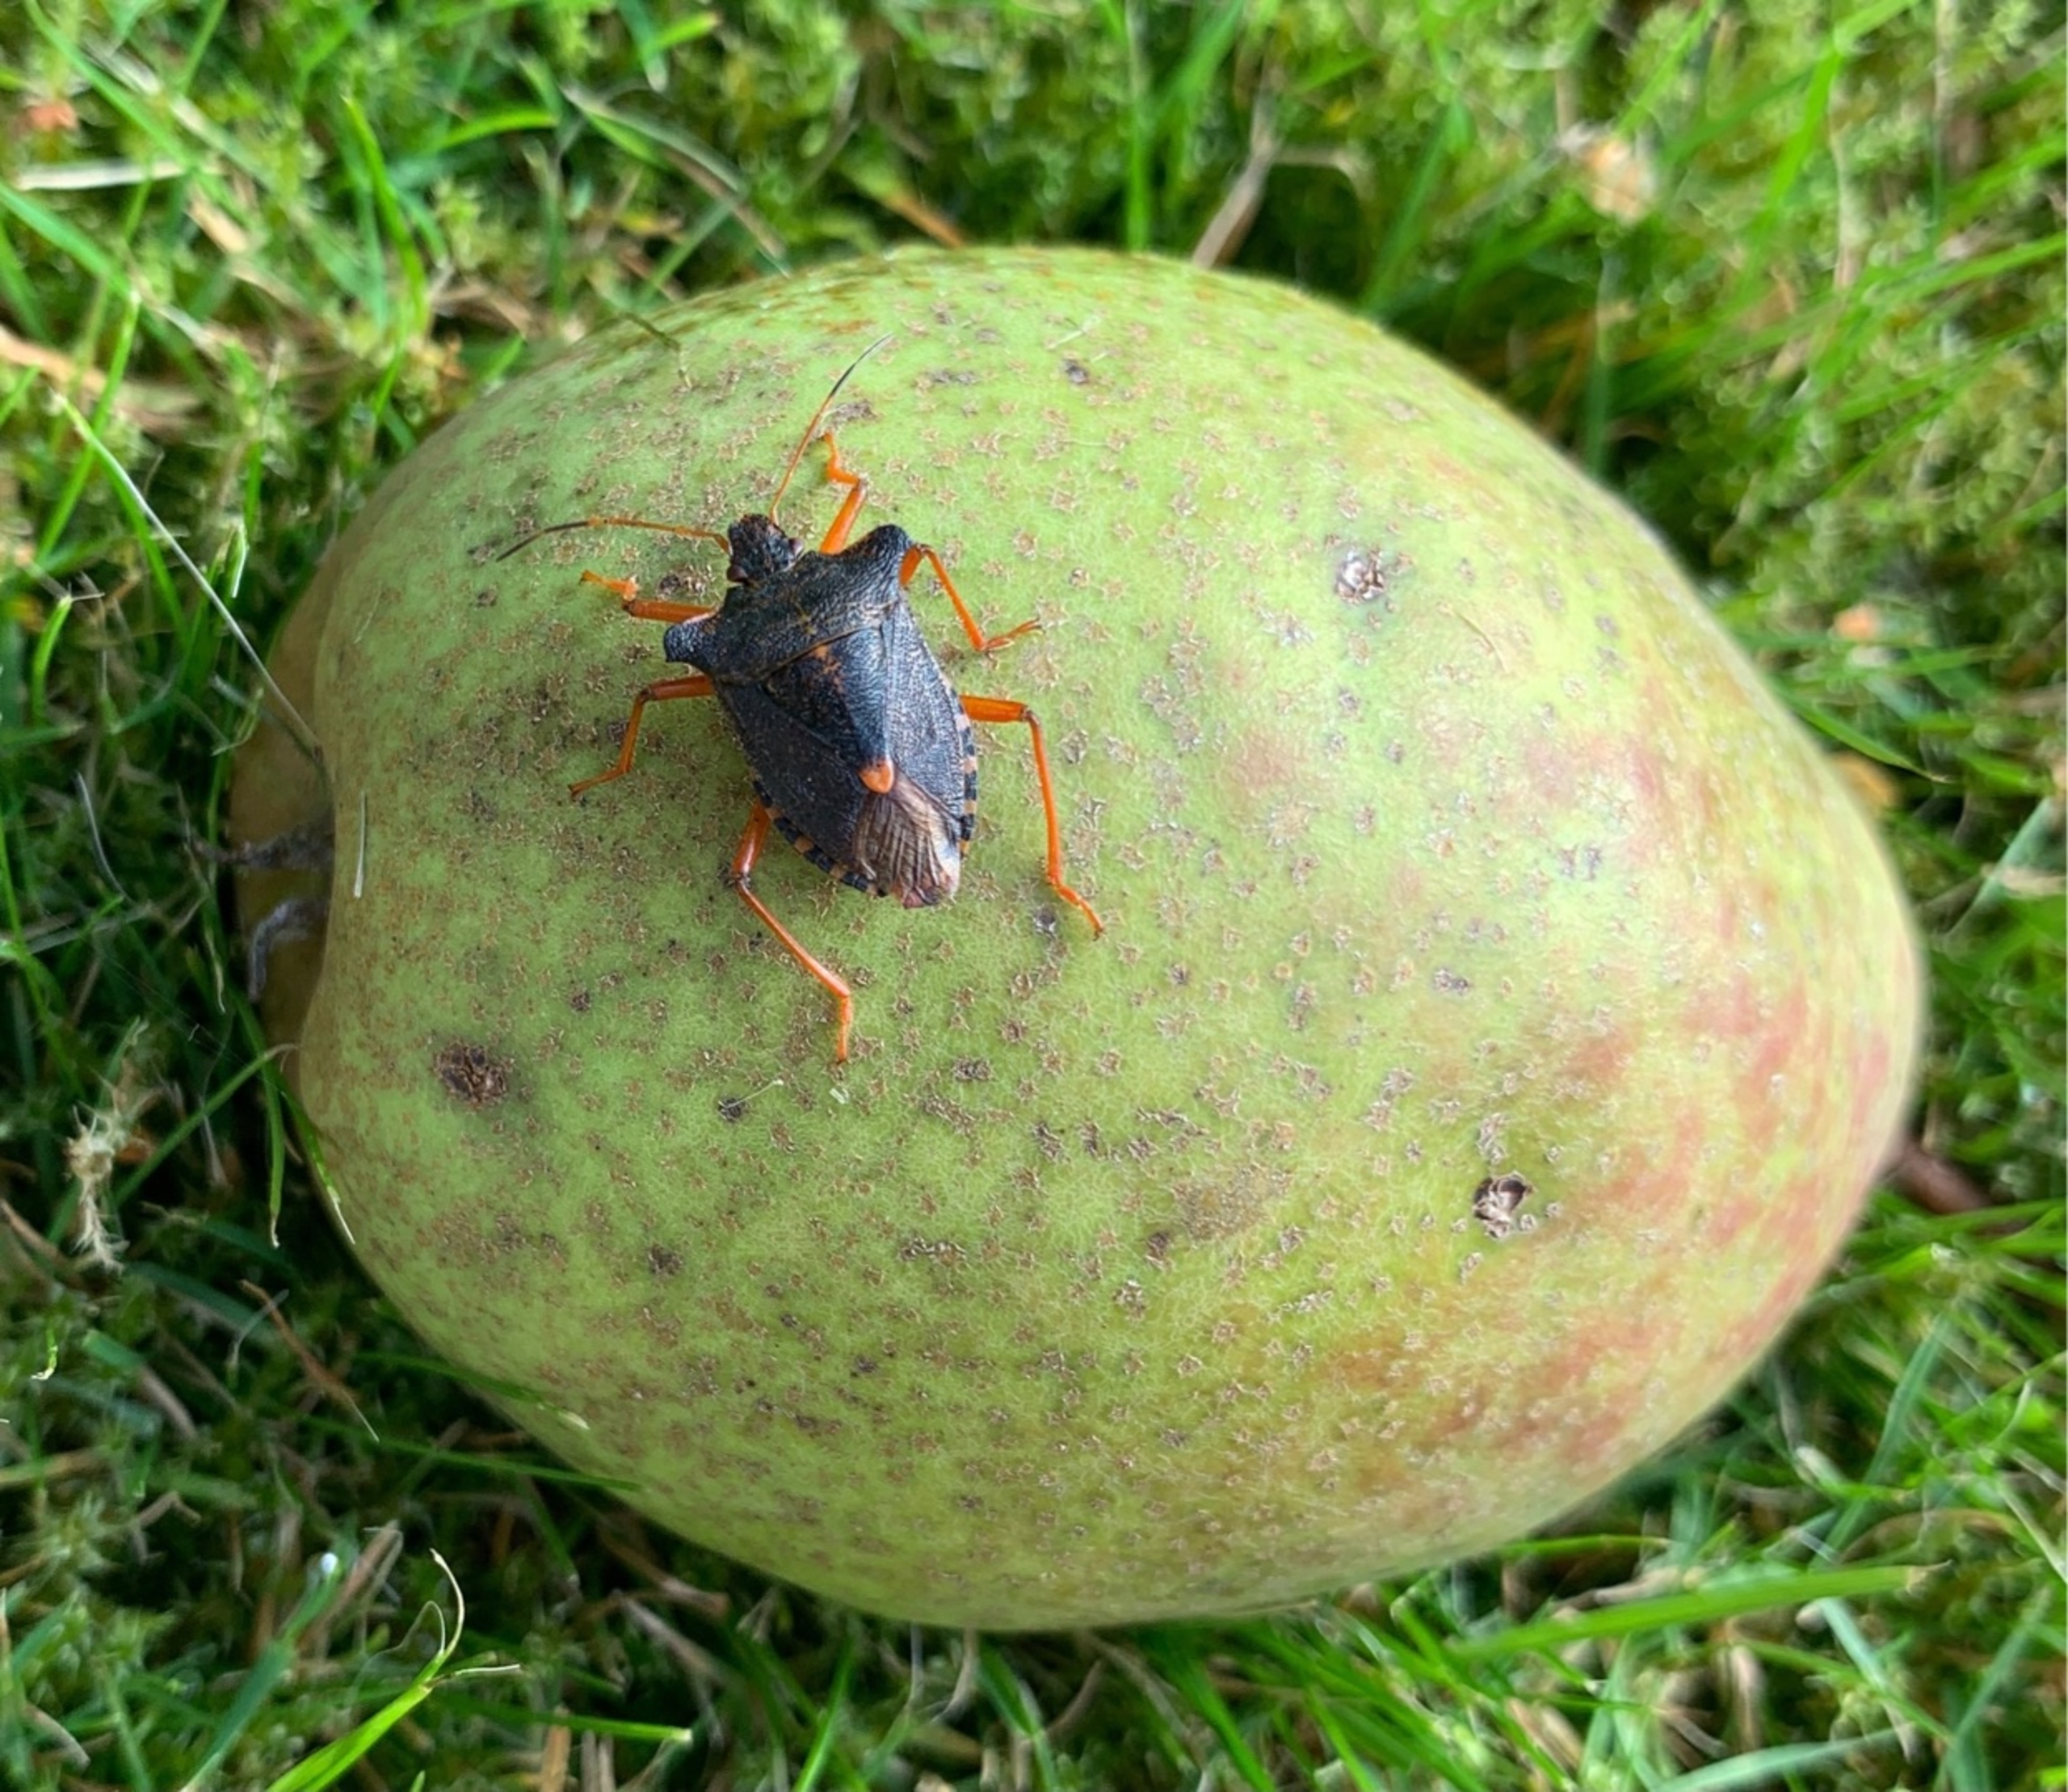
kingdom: Animalia
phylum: Arthropoda
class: Insecta
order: Hemiptera
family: Pentatomidae
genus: Pentatoma
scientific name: Pentatoma rufipes
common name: Rødbenet bredtæge
